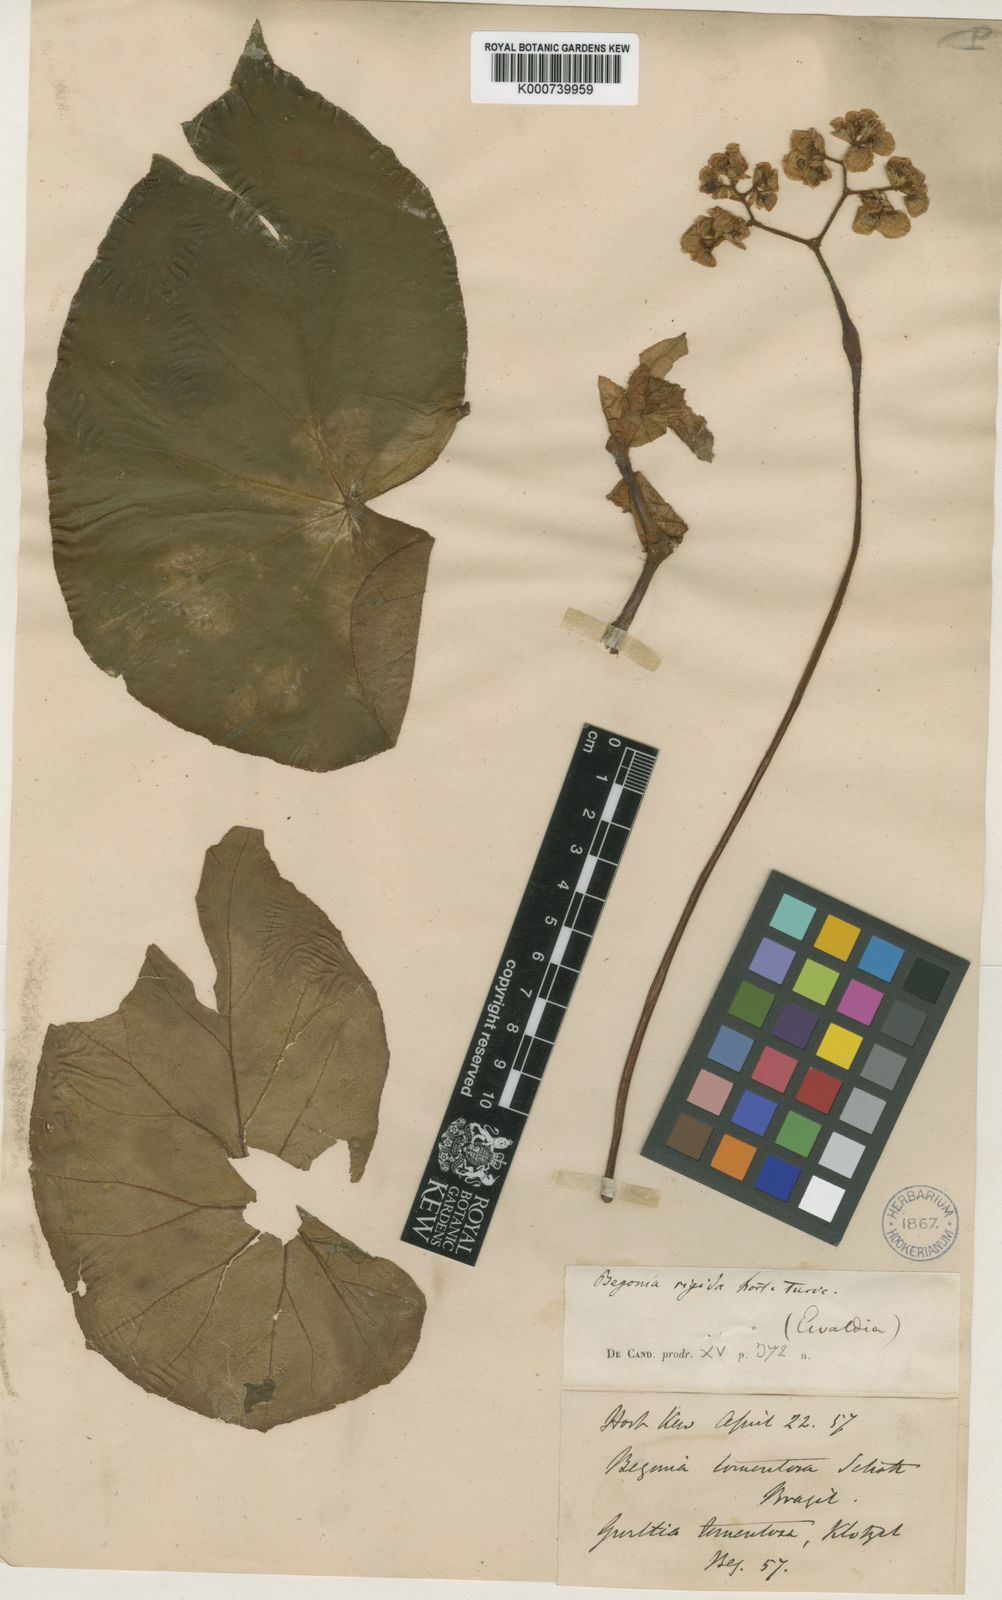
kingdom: Plantae
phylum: Tracheophyta
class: Magnoliopsida
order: Cucurbitales
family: Begoniaceae
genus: Begonia
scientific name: Begonia rigida
